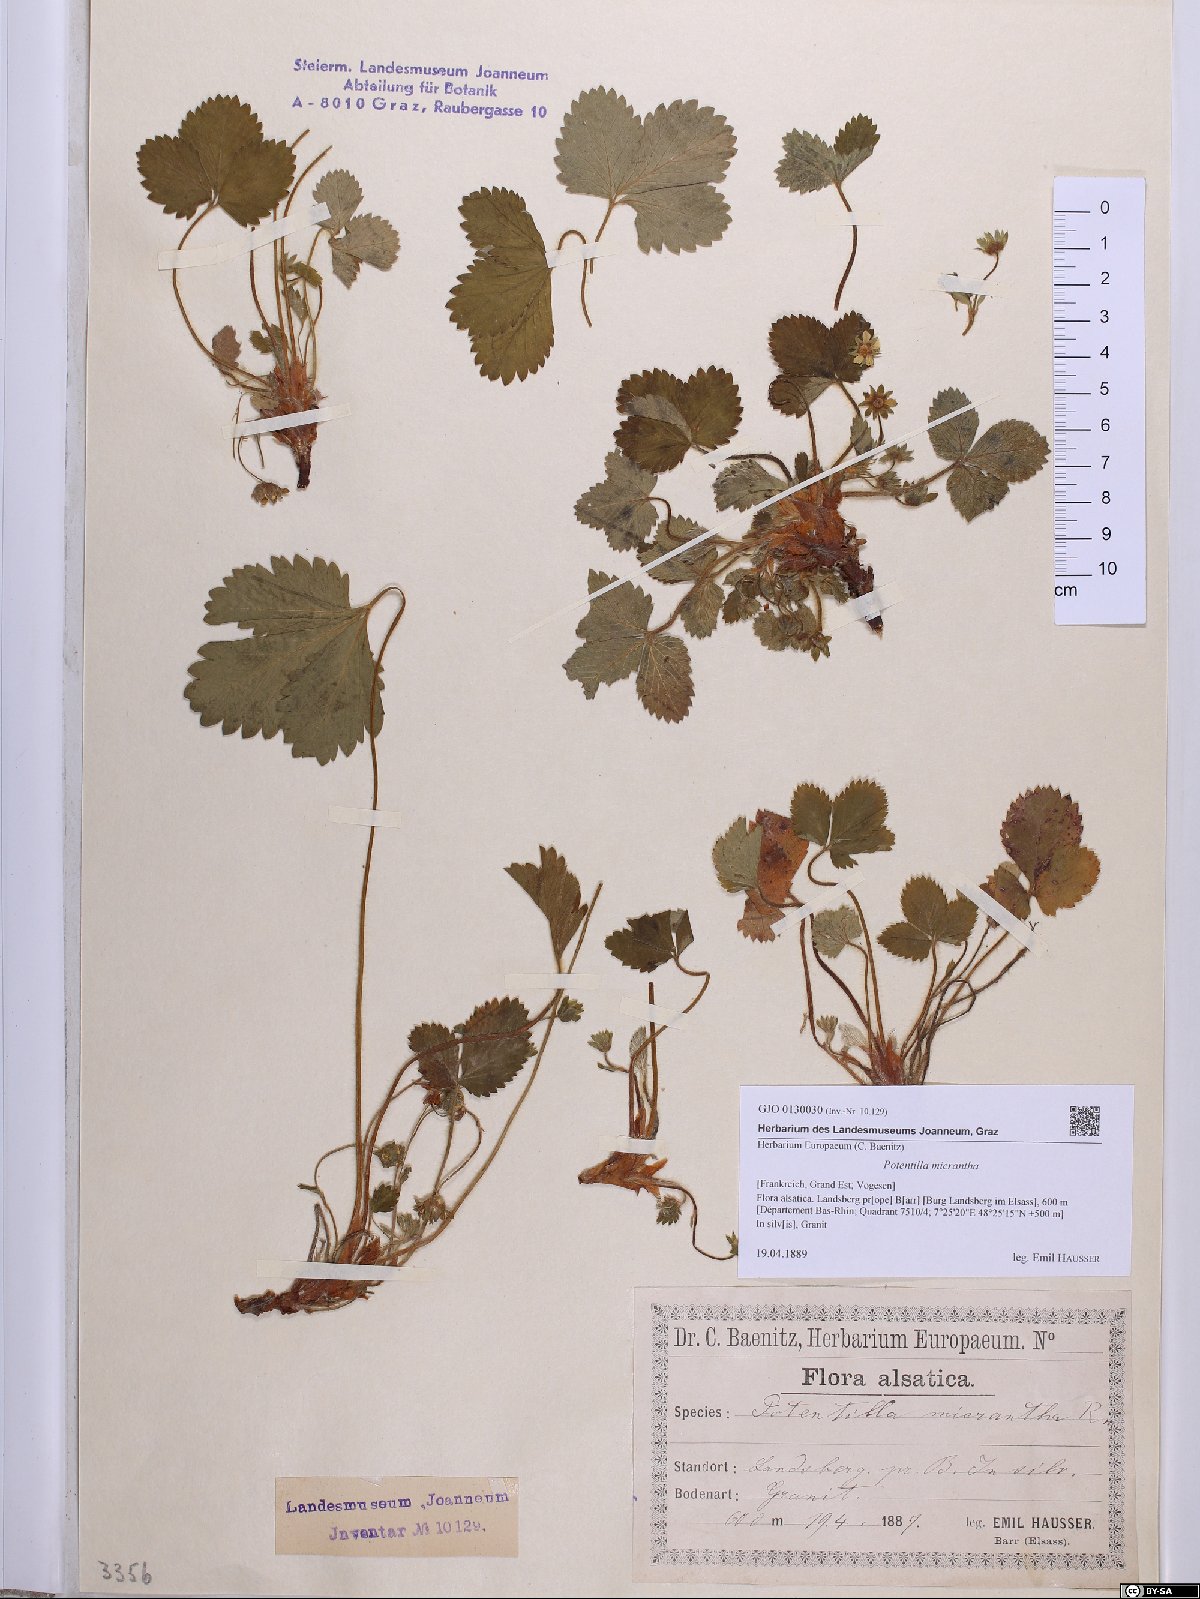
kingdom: Plantae
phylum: Tracheophyta
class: Magnoliopsida
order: Rosales
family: Rosaceae
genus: Potentilla
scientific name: Potentilla micrantha
